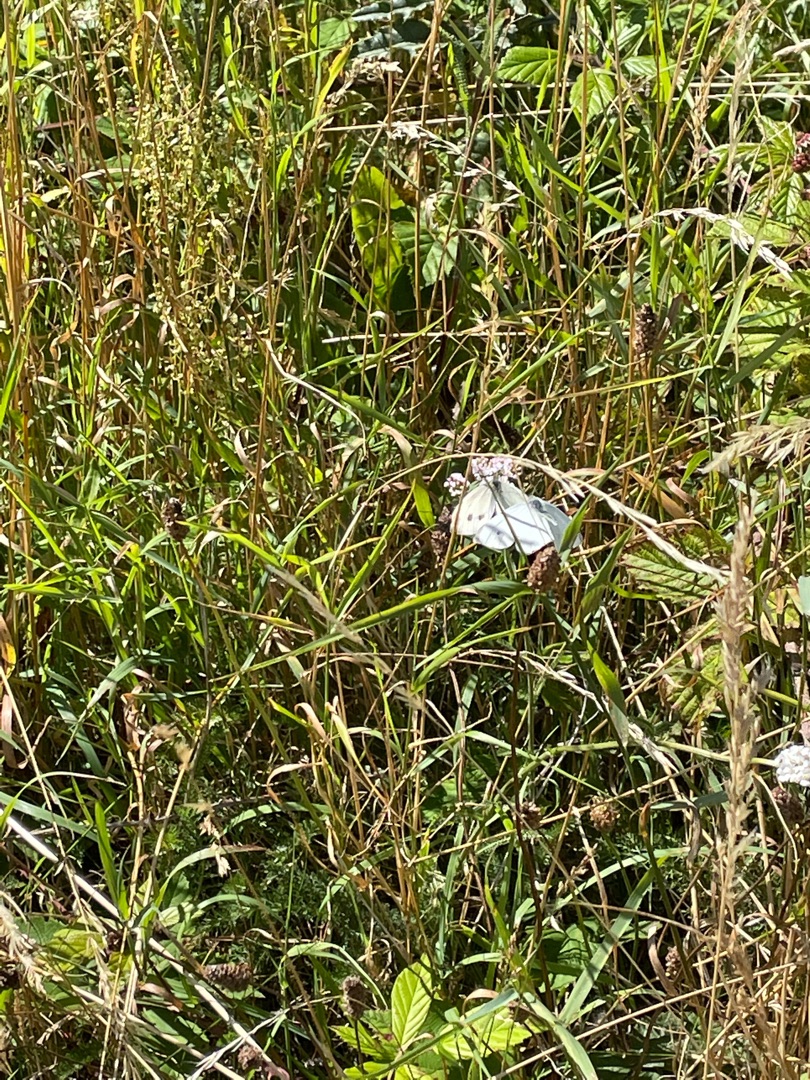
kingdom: Animalia
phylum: Arthropoda
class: Insecta
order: Lepidoptera
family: Pieridae
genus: Pieris
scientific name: Pieris napi
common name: Grønåret kålsommerfugl
